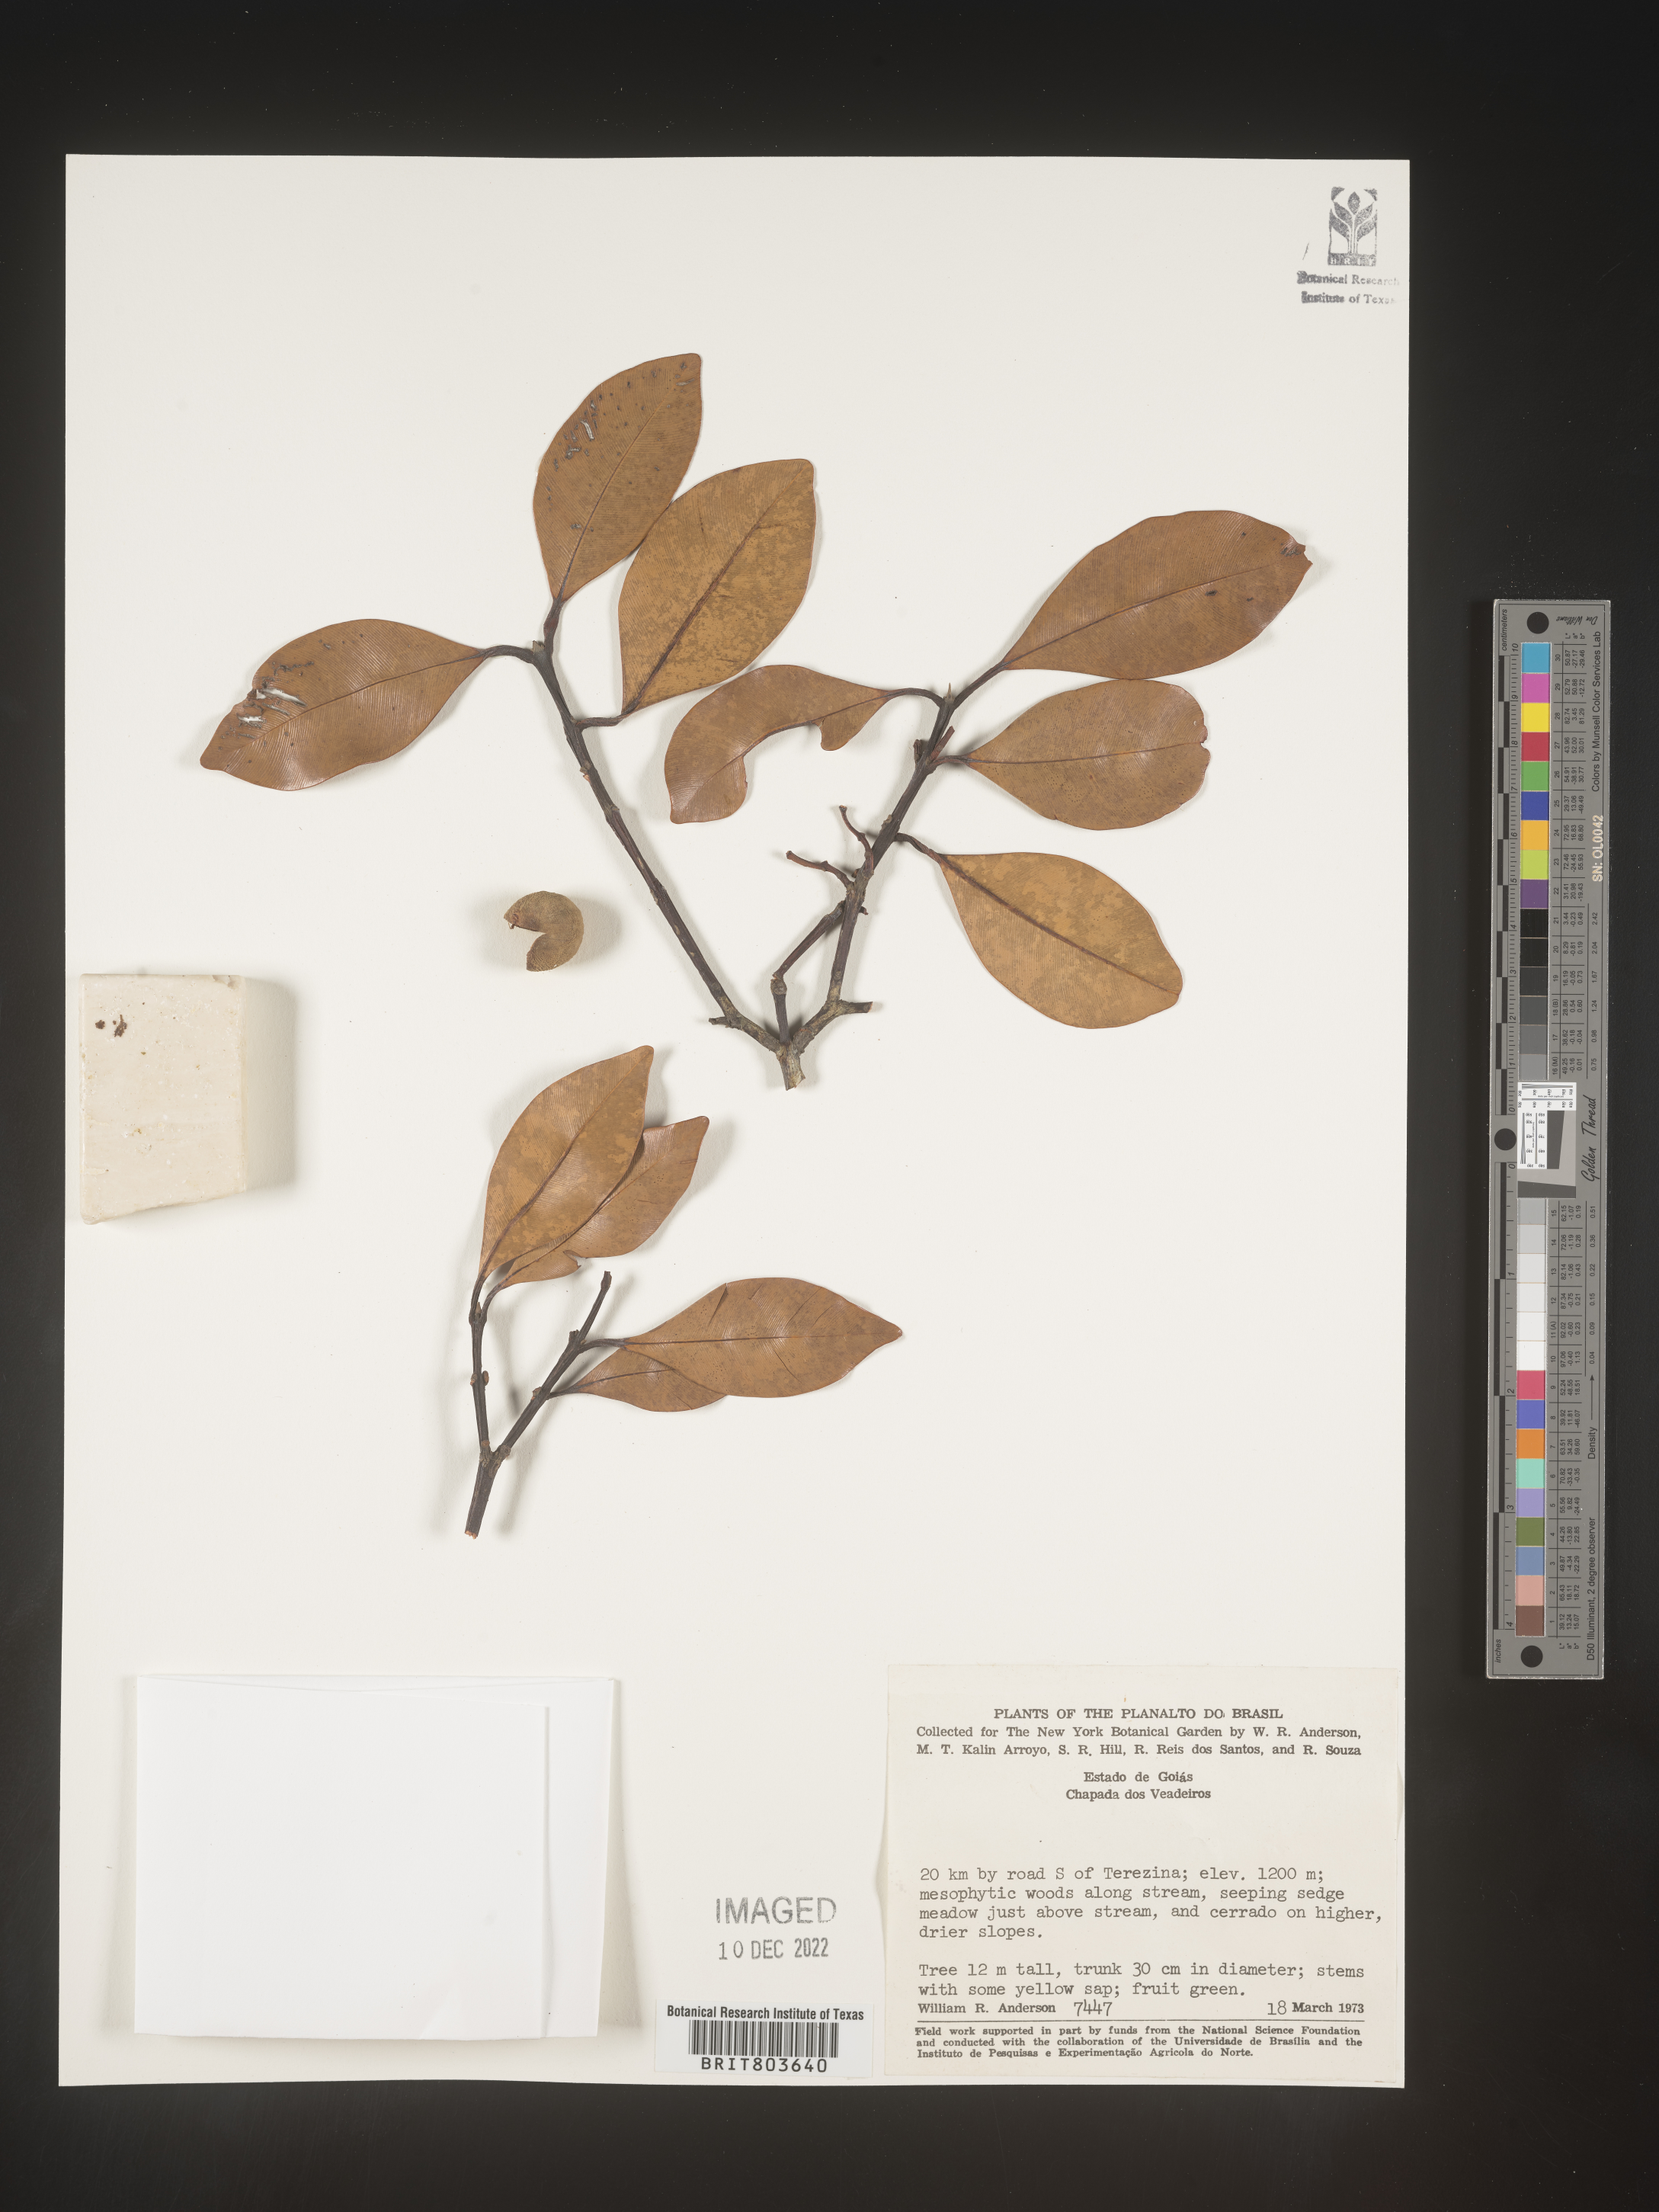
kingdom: Plantae
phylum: Tracheophyta
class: Magnoliopsida
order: Malpighiales
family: Clusiaceae
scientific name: Clusiaceae
